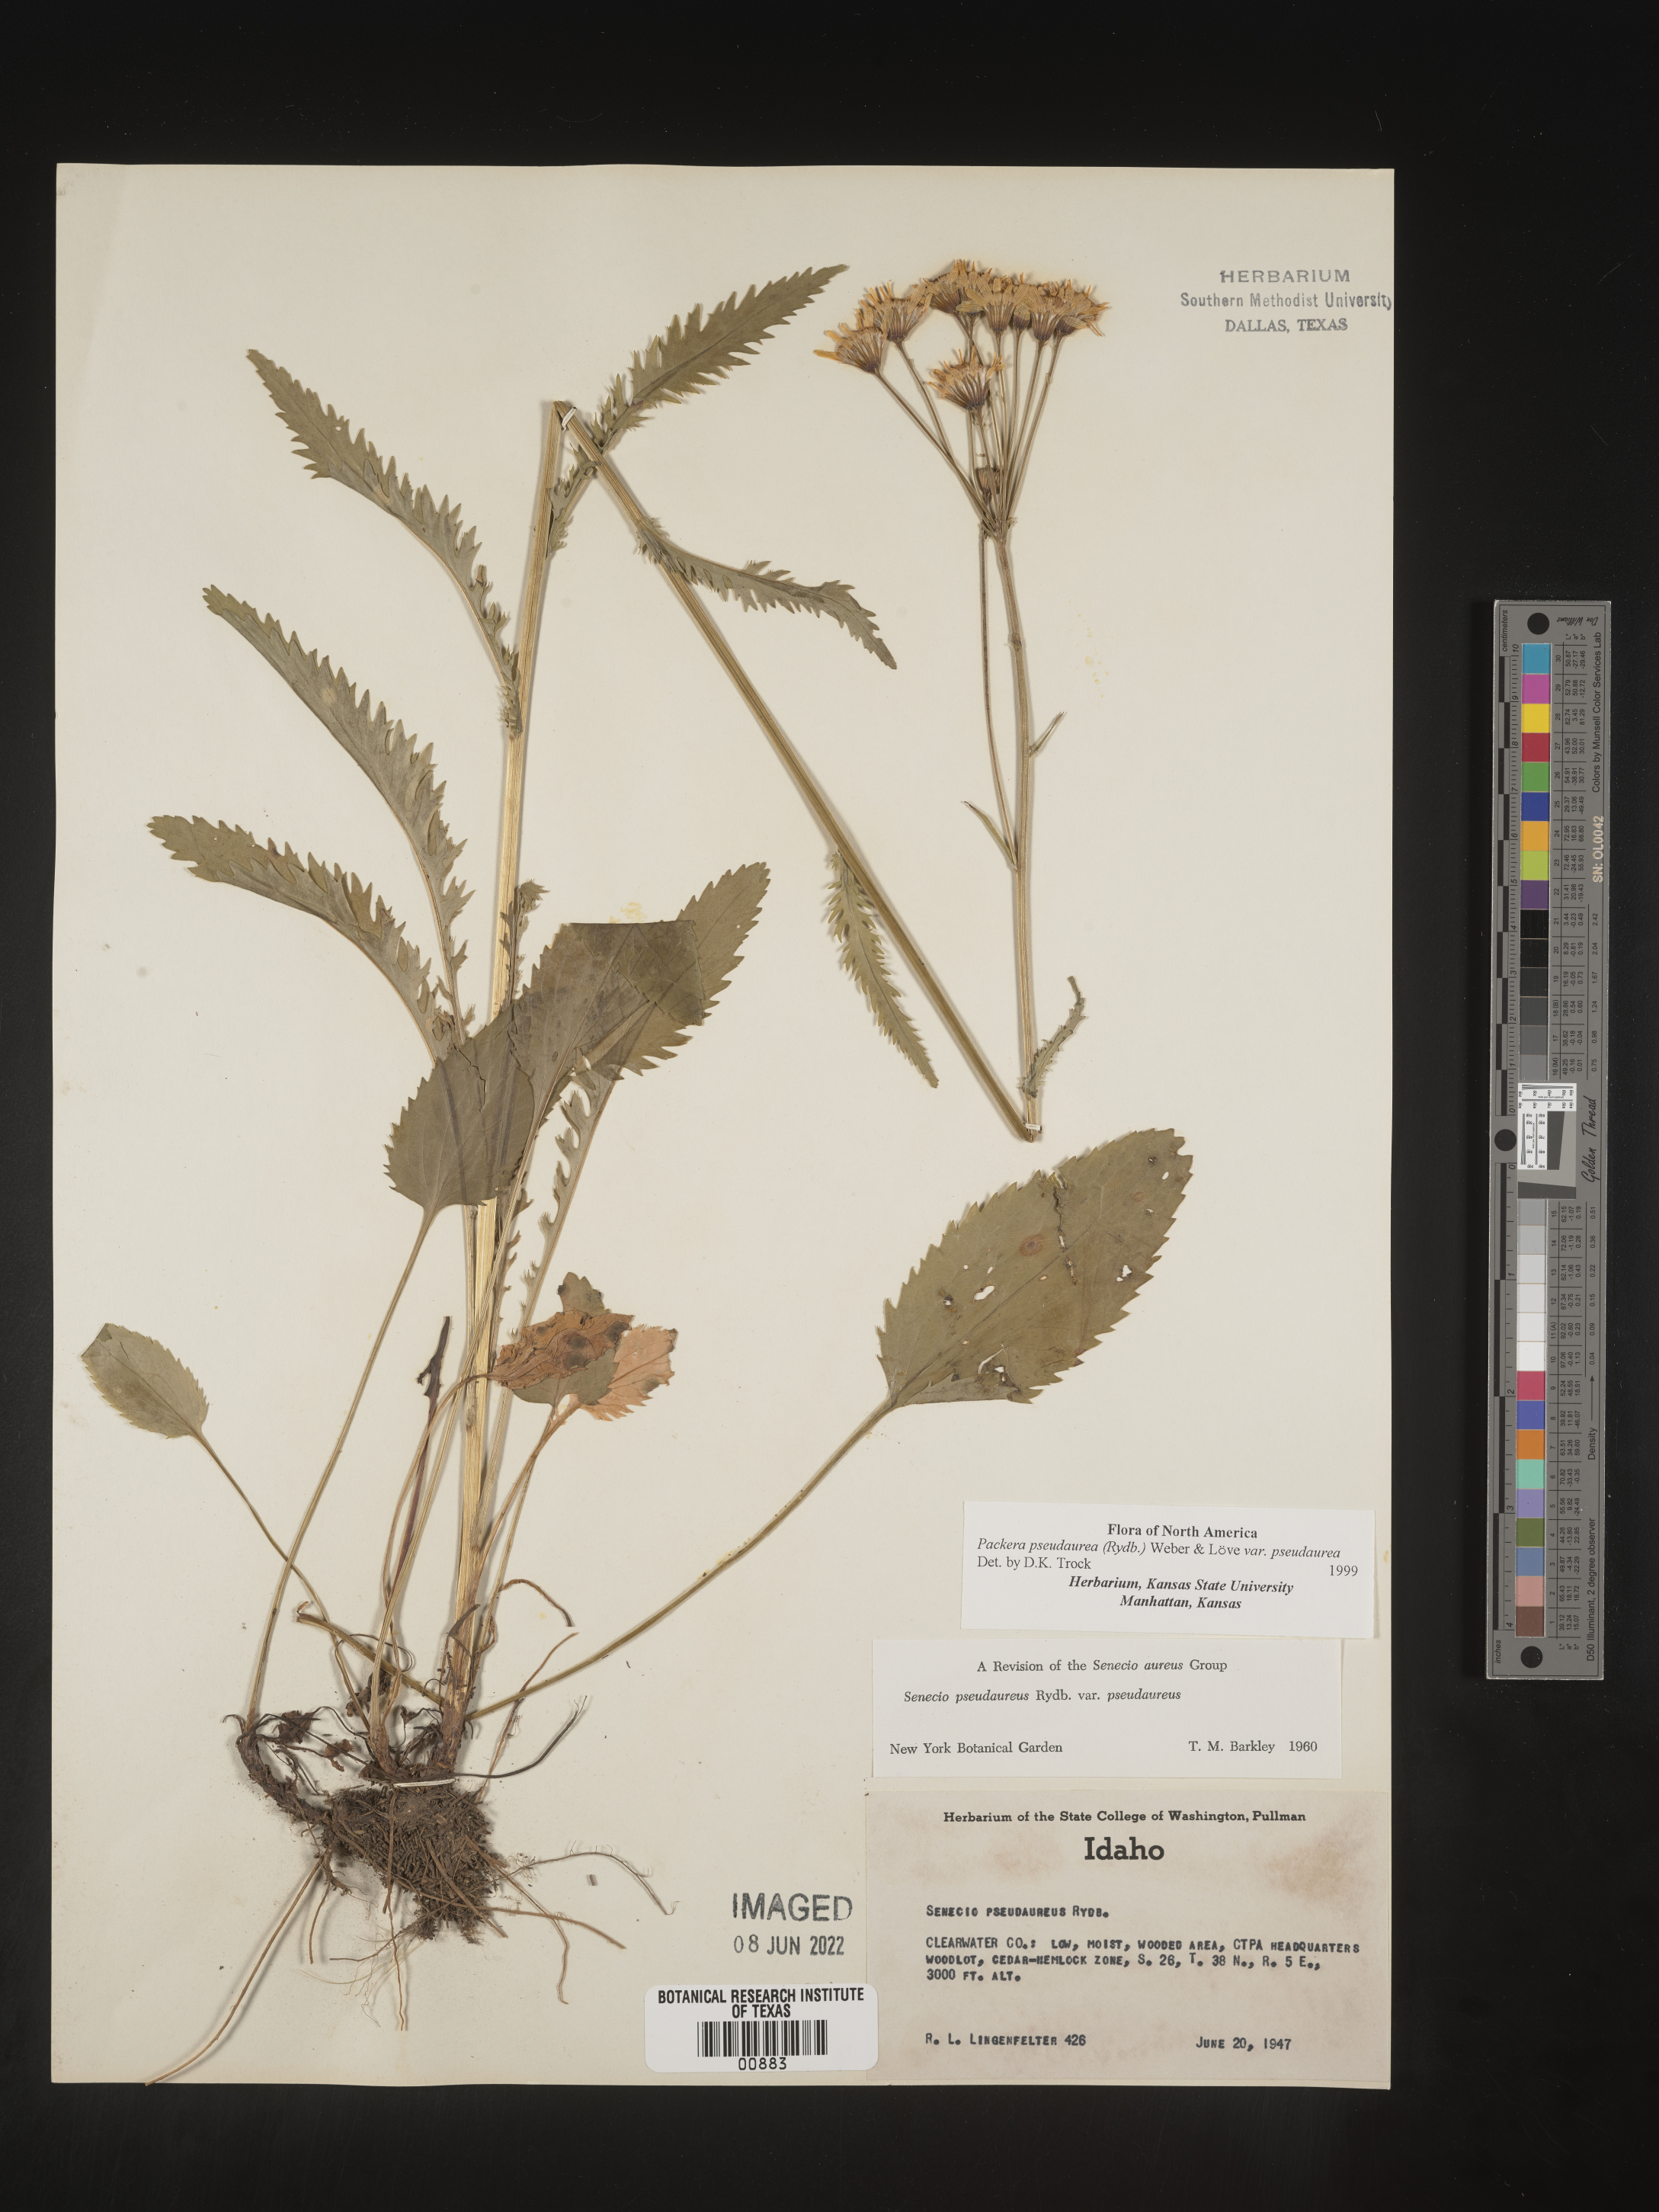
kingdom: Plantae
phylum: Tracheophyta
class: Magnoliopsida
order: Asterales
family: Asteraceae
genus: Packera
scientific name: Packera pseudaurea
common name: False-gold groundsel
